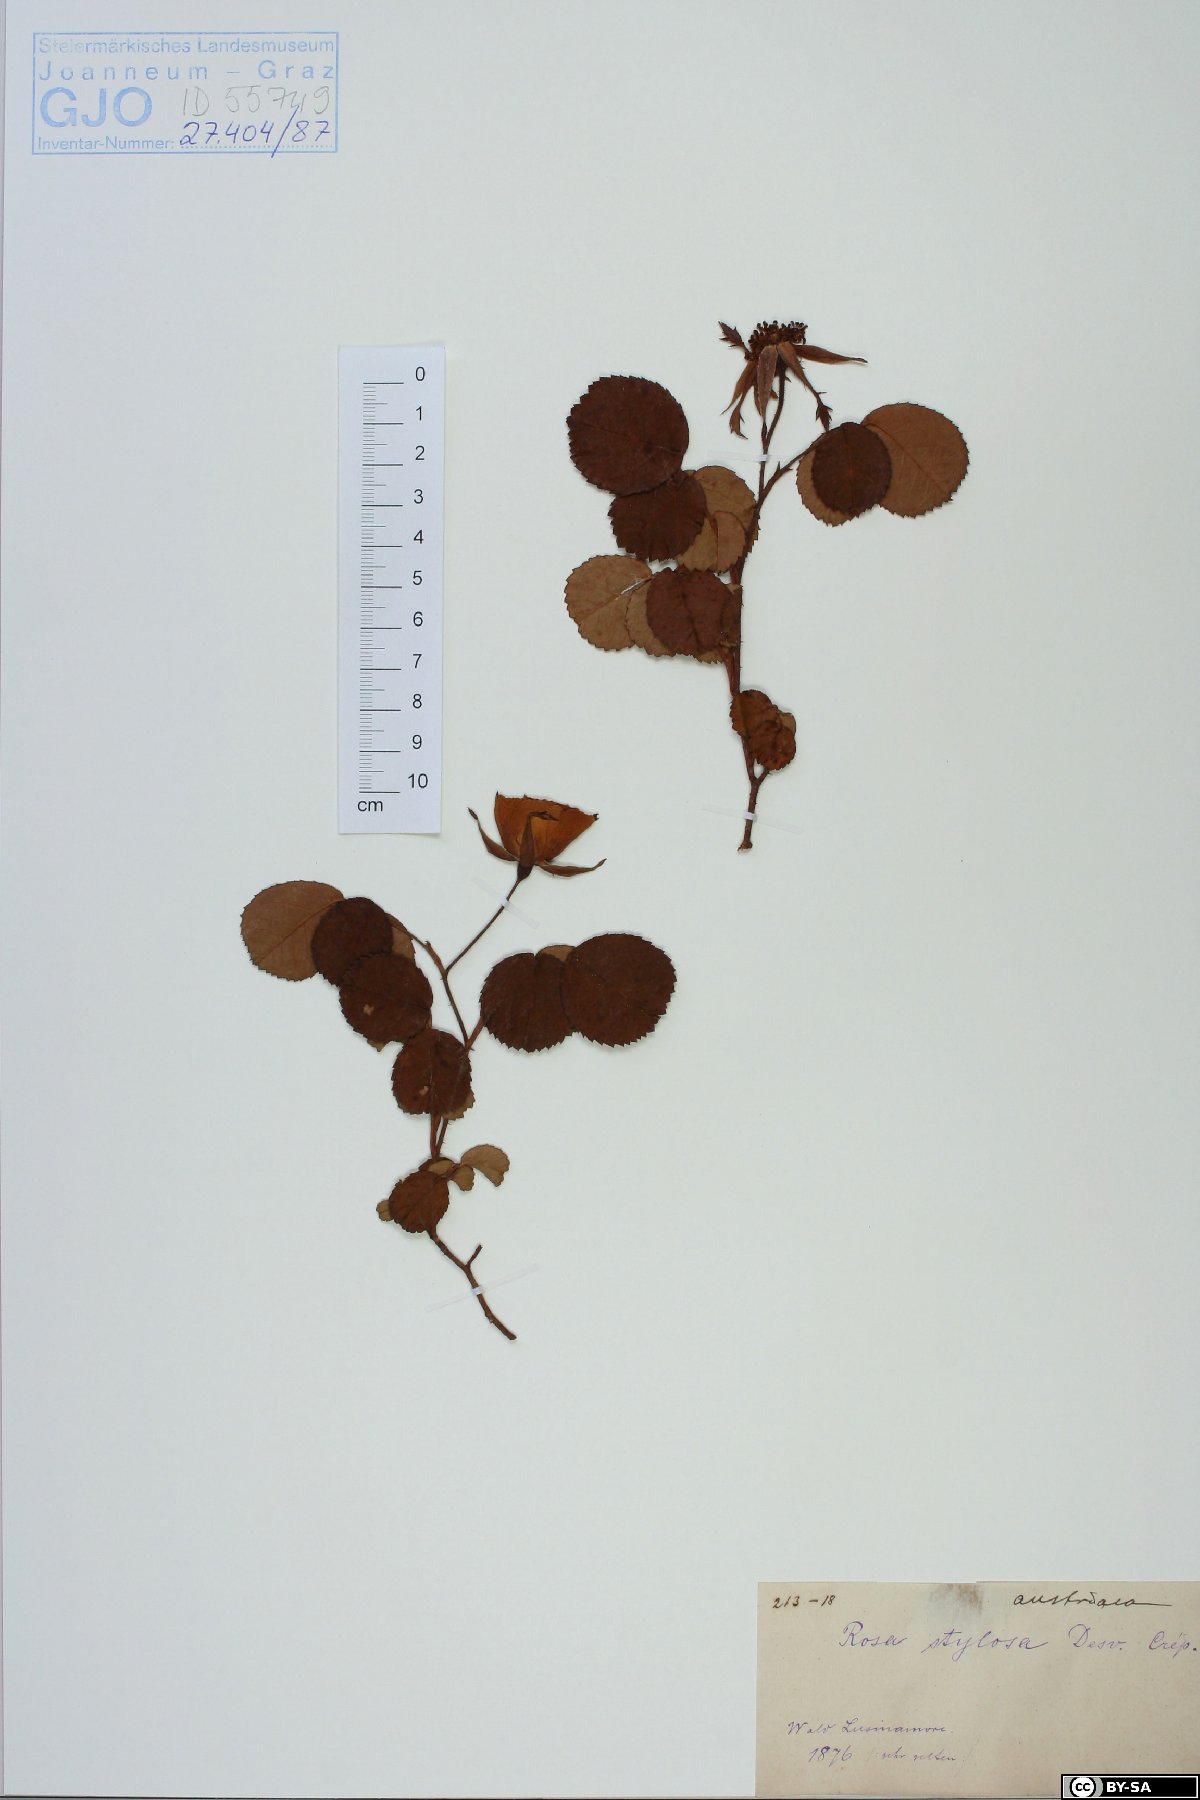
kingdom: Plantae
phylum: Tracheophyta
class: Magnoliopsida
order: Rosales
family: Rosaceae
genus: Rosa
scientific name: Rosa gallica
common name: French rose
